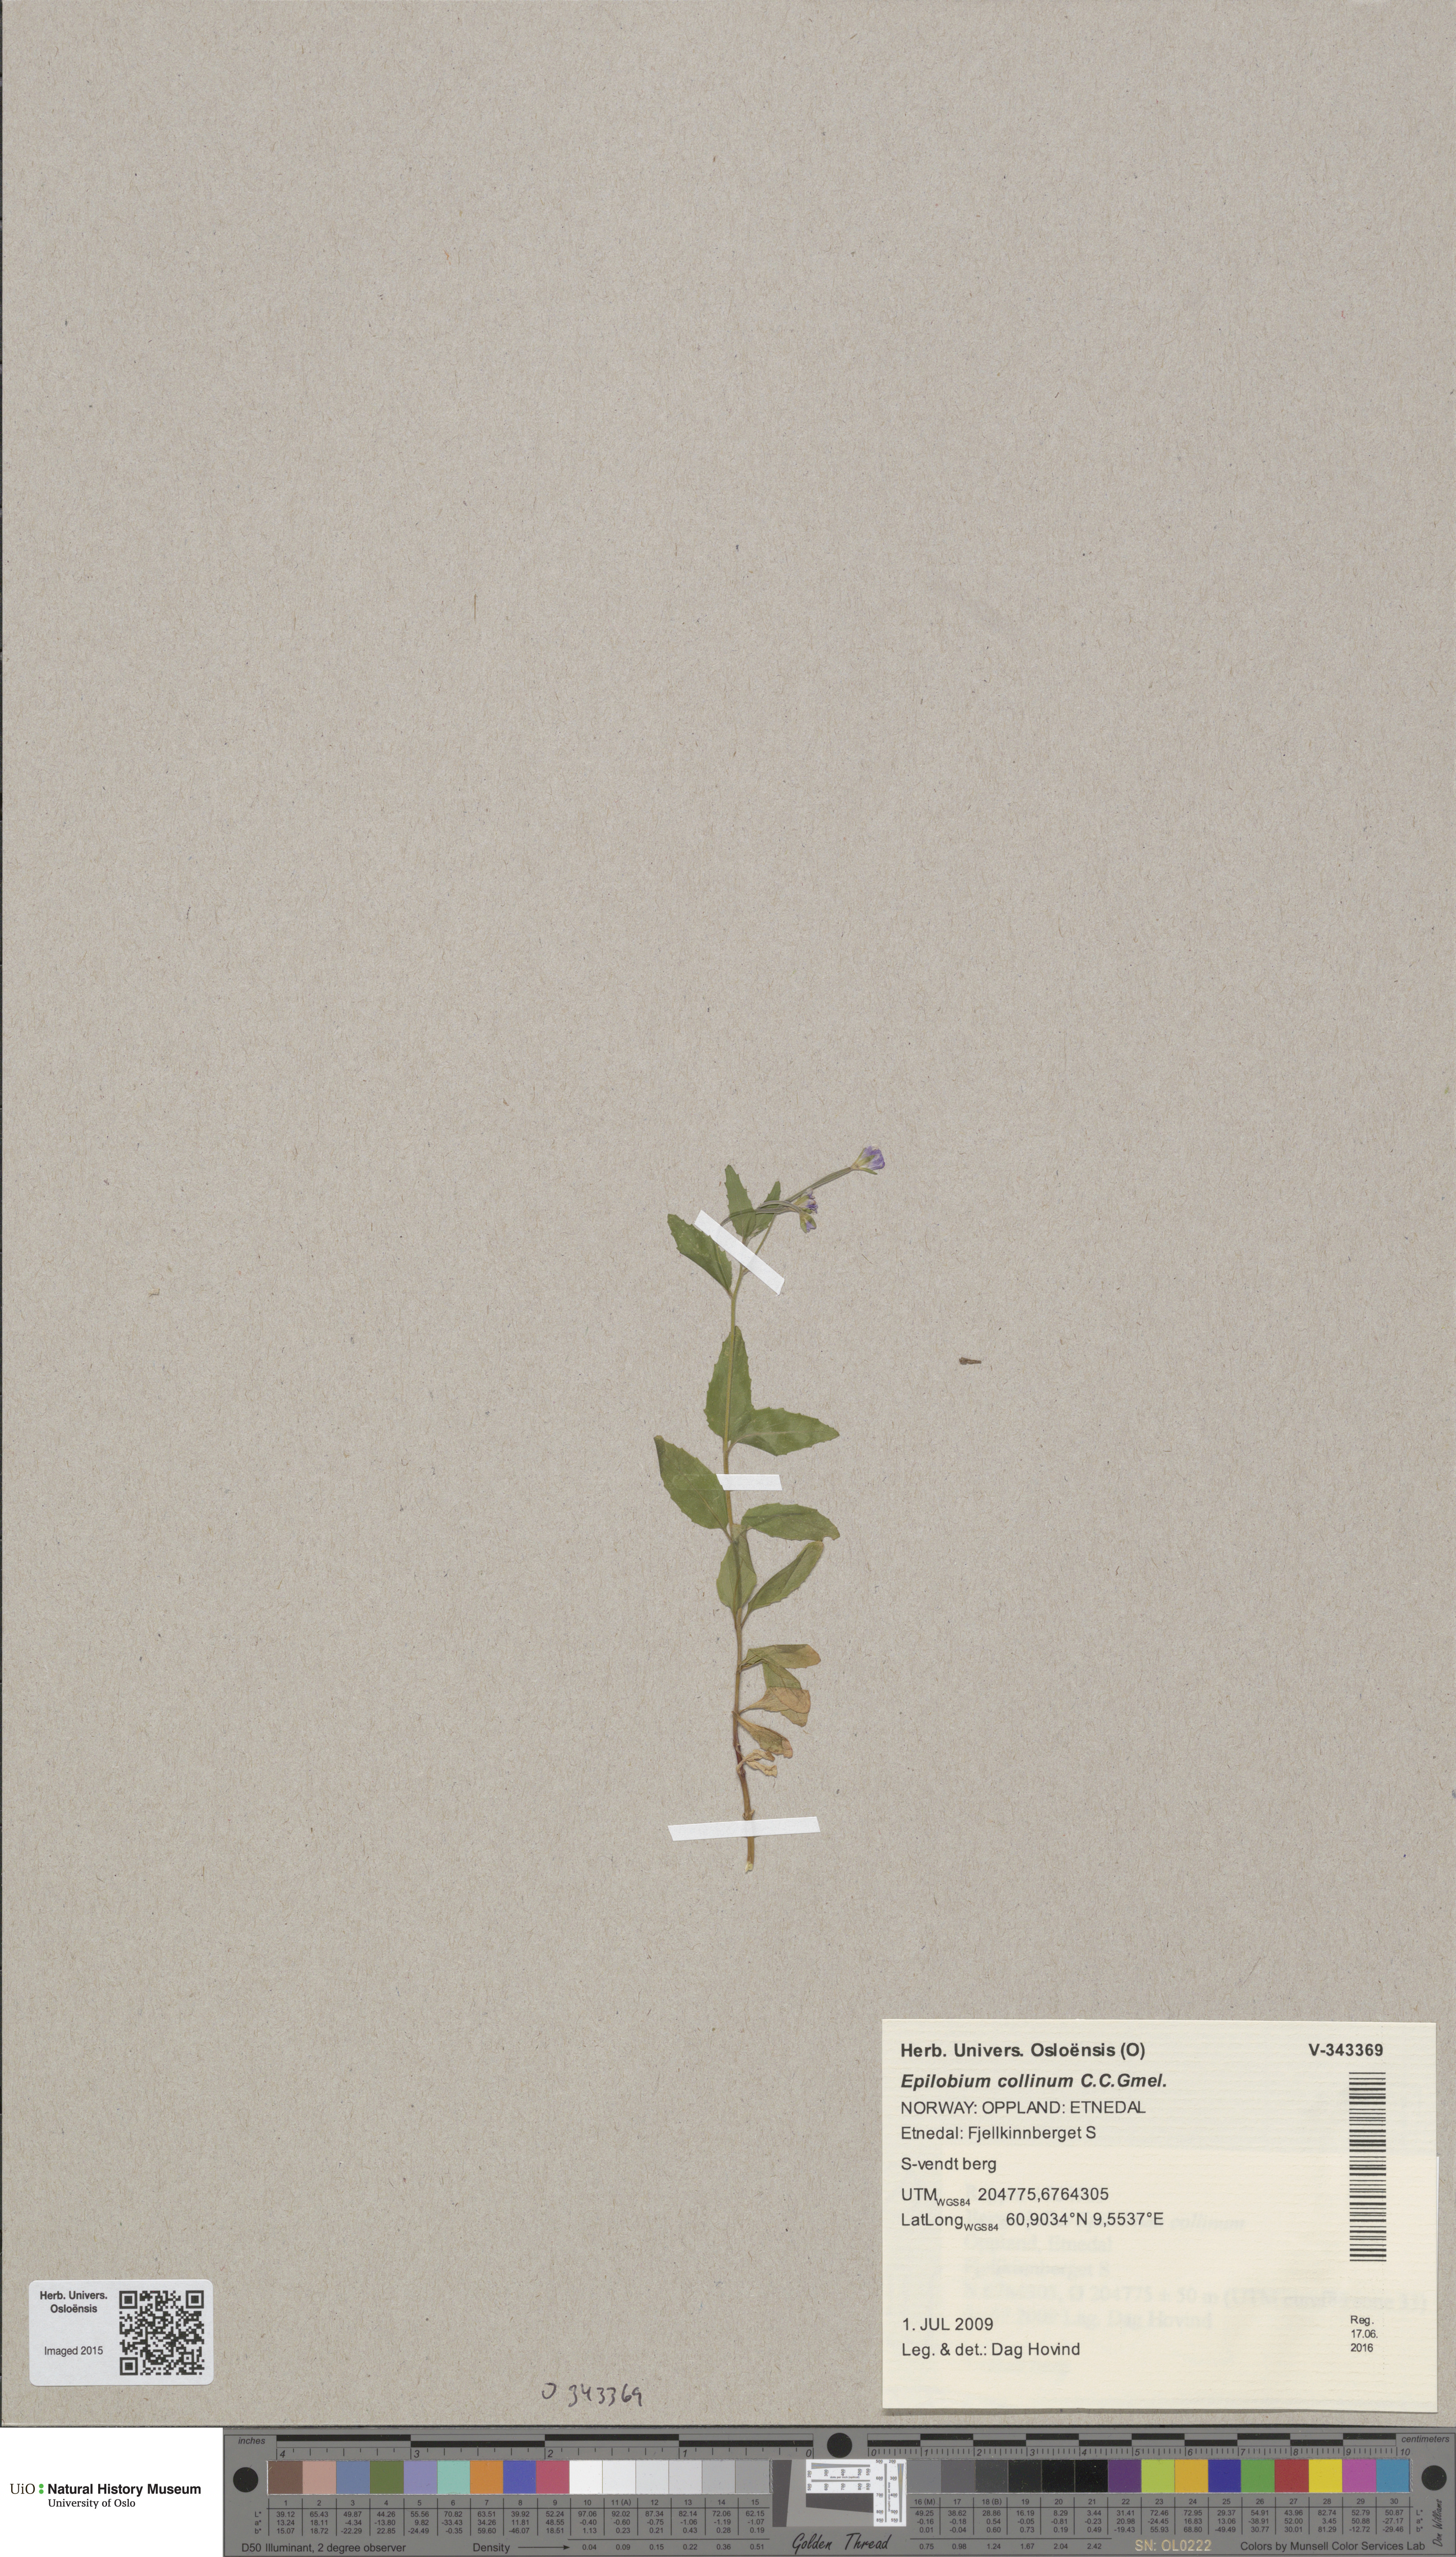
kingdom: Plantae
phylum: Tracheophyta
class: Magnoliopsida
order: Myrtales
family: Onagraceae
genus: Epilobium
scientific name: Epilobium collinum
